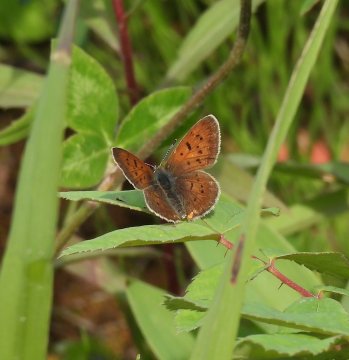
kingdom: Animalia
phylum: Arthropoda
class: Insecta
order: Lepidoptera
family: Lycaenidae
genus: Epidemia
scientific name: Epidemia dorcas
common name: Dorcas Copper
